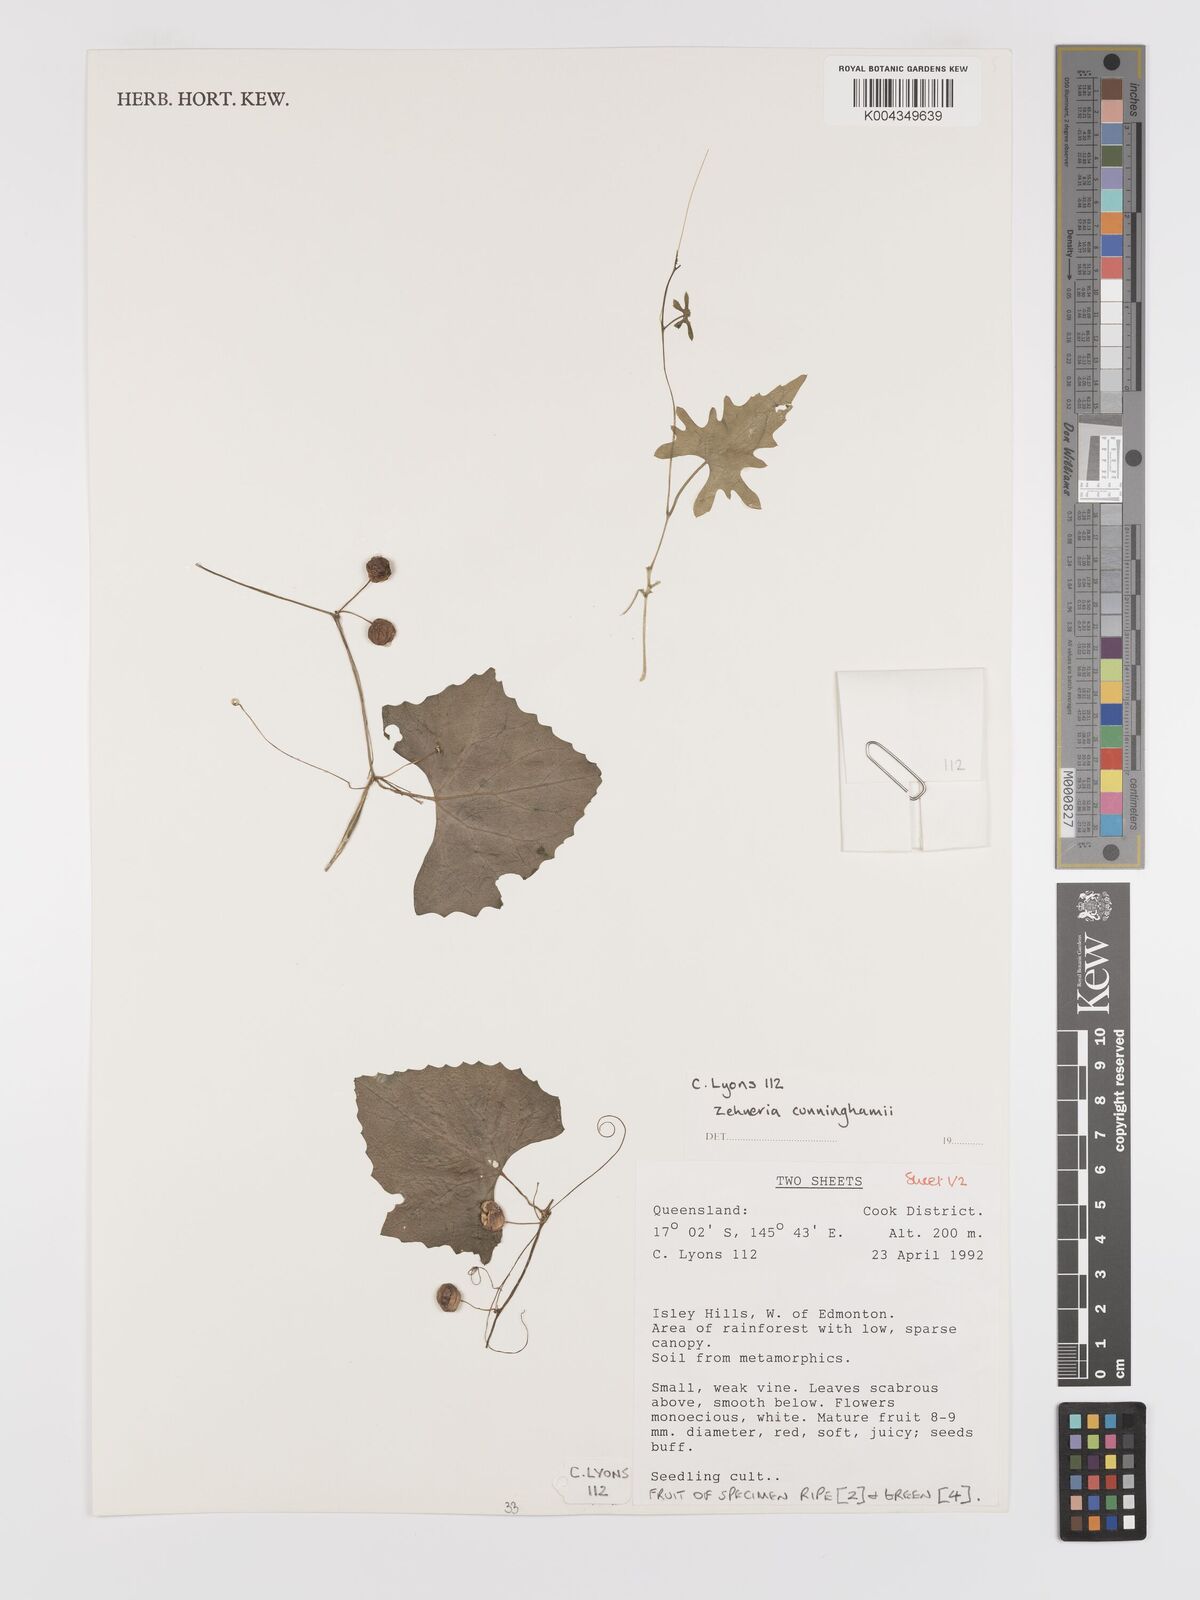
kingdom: Plantae
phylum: Tracheophyta
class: Magnoliopsida
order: Cucurbitales
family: Cucurbitaceae
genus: Zehneria
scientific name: Zehneria cunninghamii
